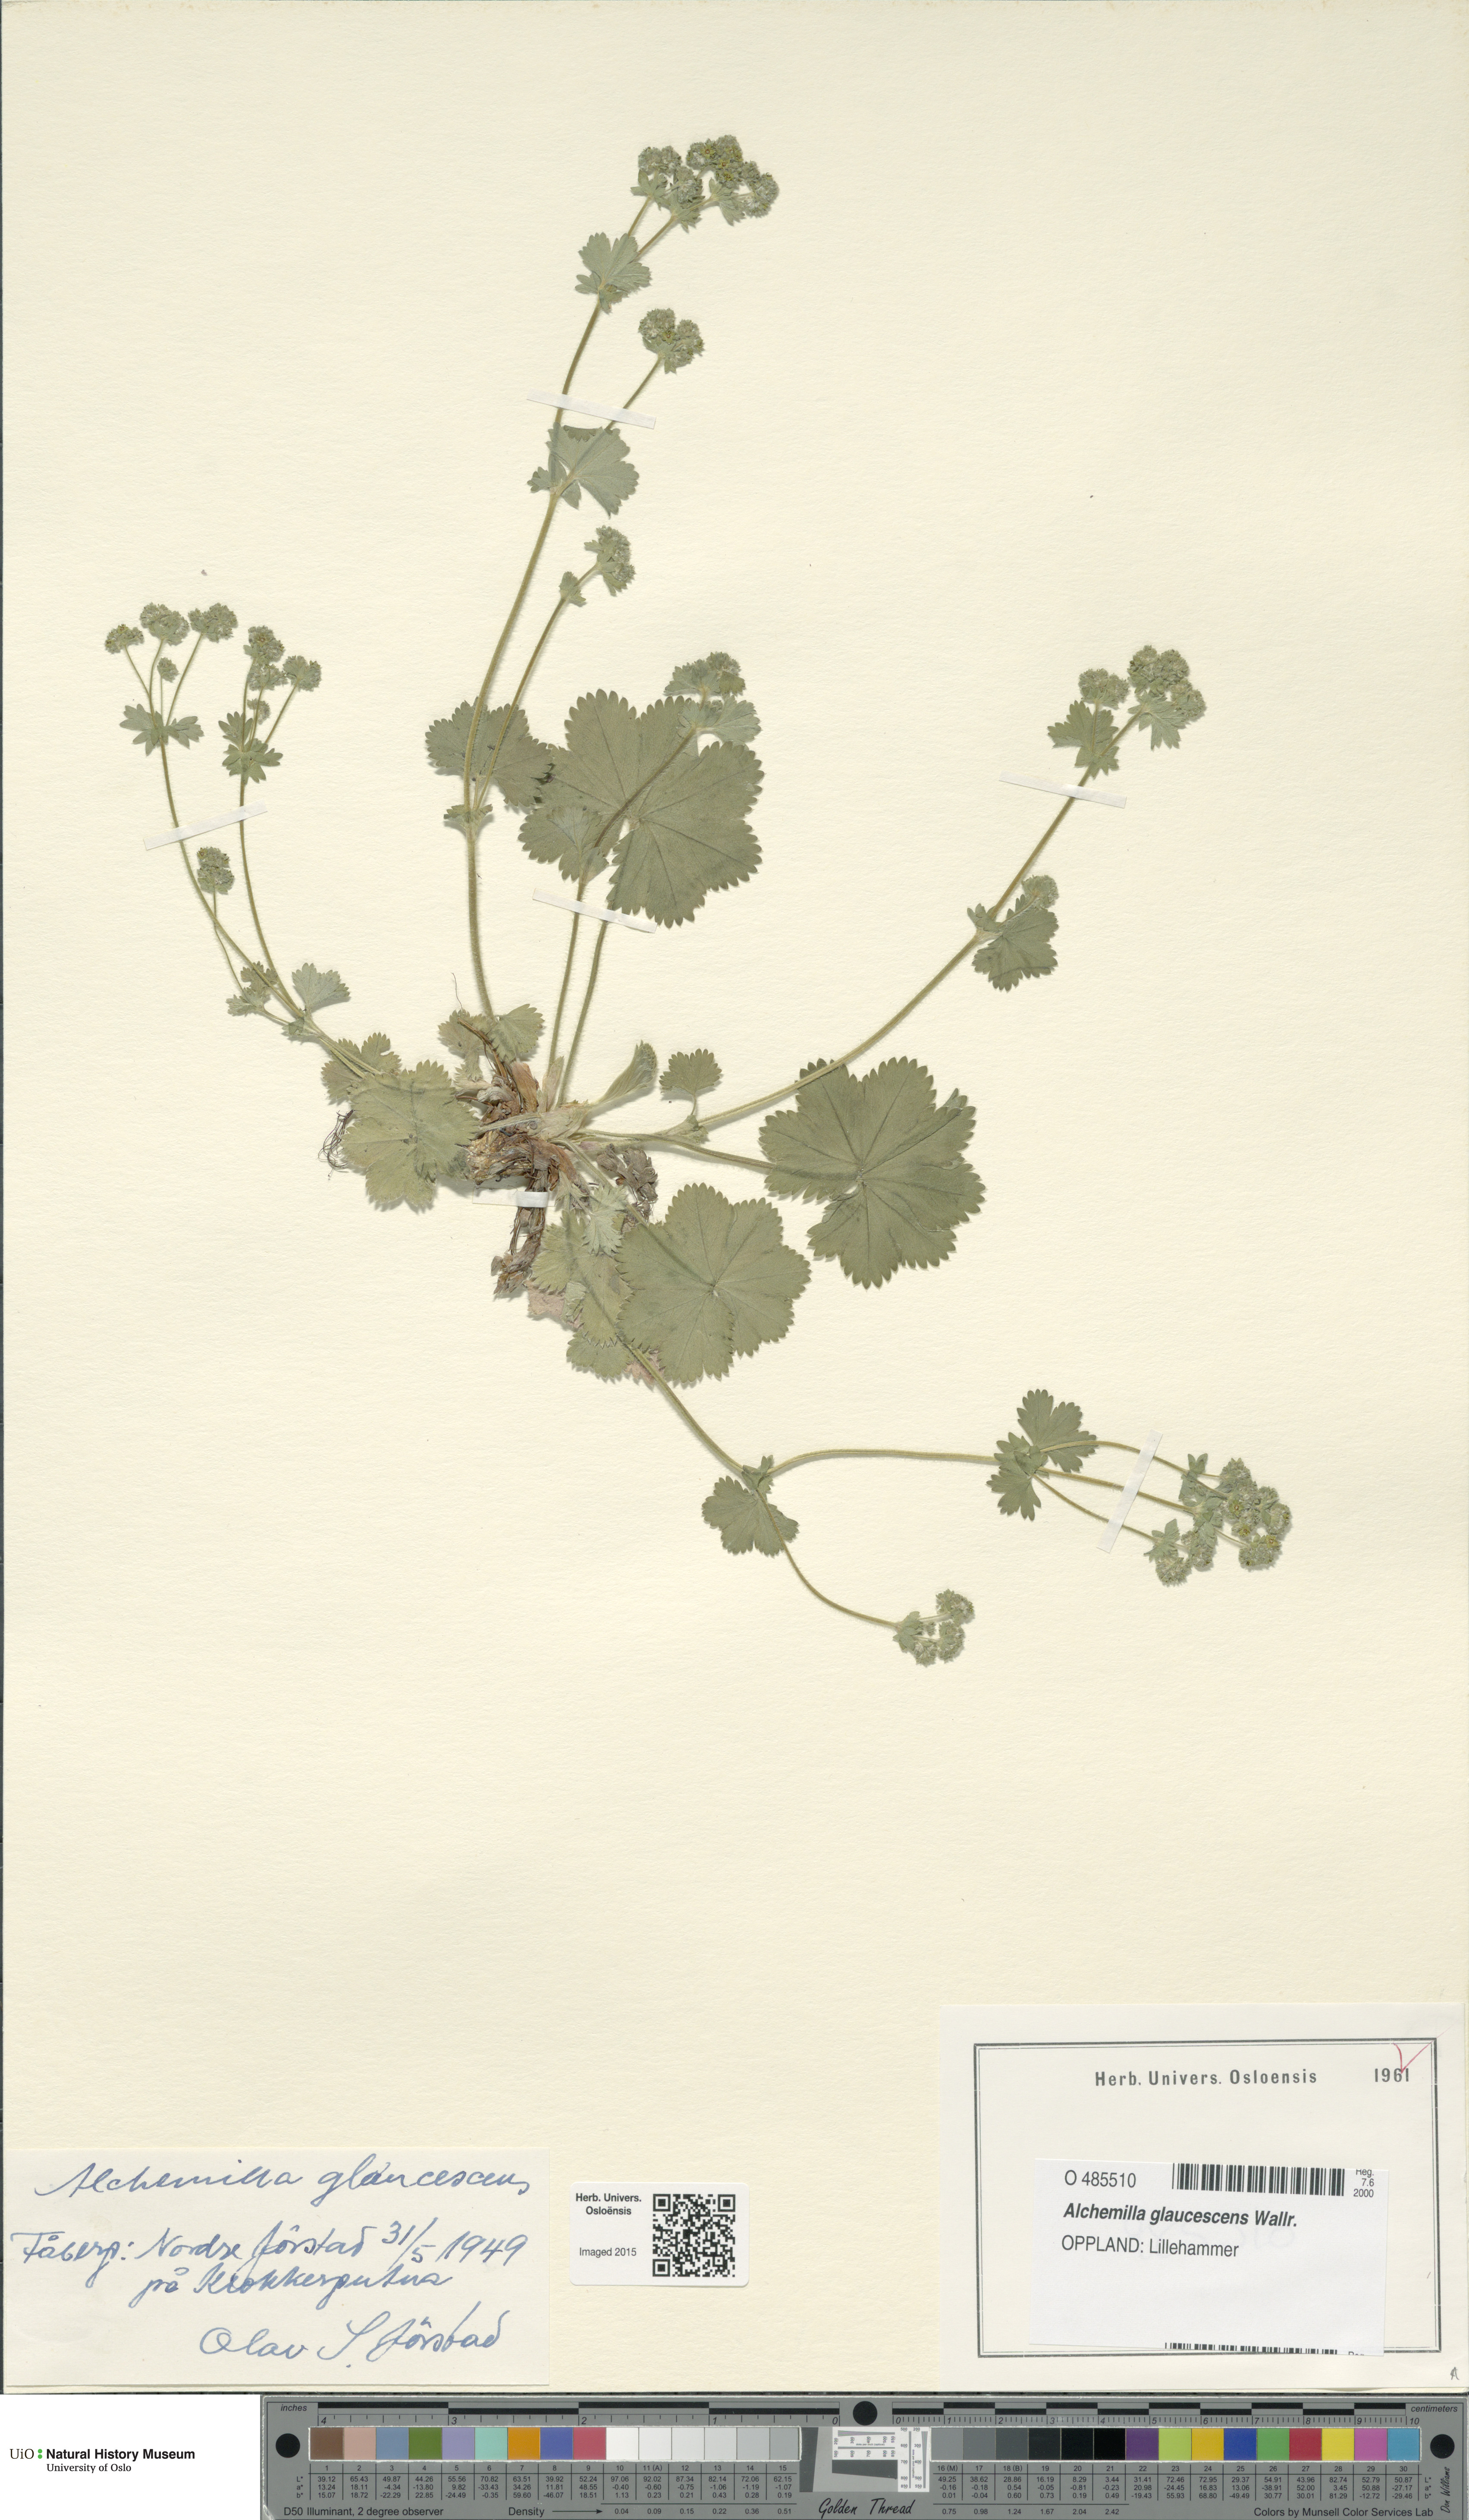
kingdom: Plantae
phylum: Tracheophyta
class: Magnoliopsida
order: Rosales
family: Rosaceae
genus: Alchemilla
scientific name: Alchemilla glaucescens
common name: Silky lady's mantle
